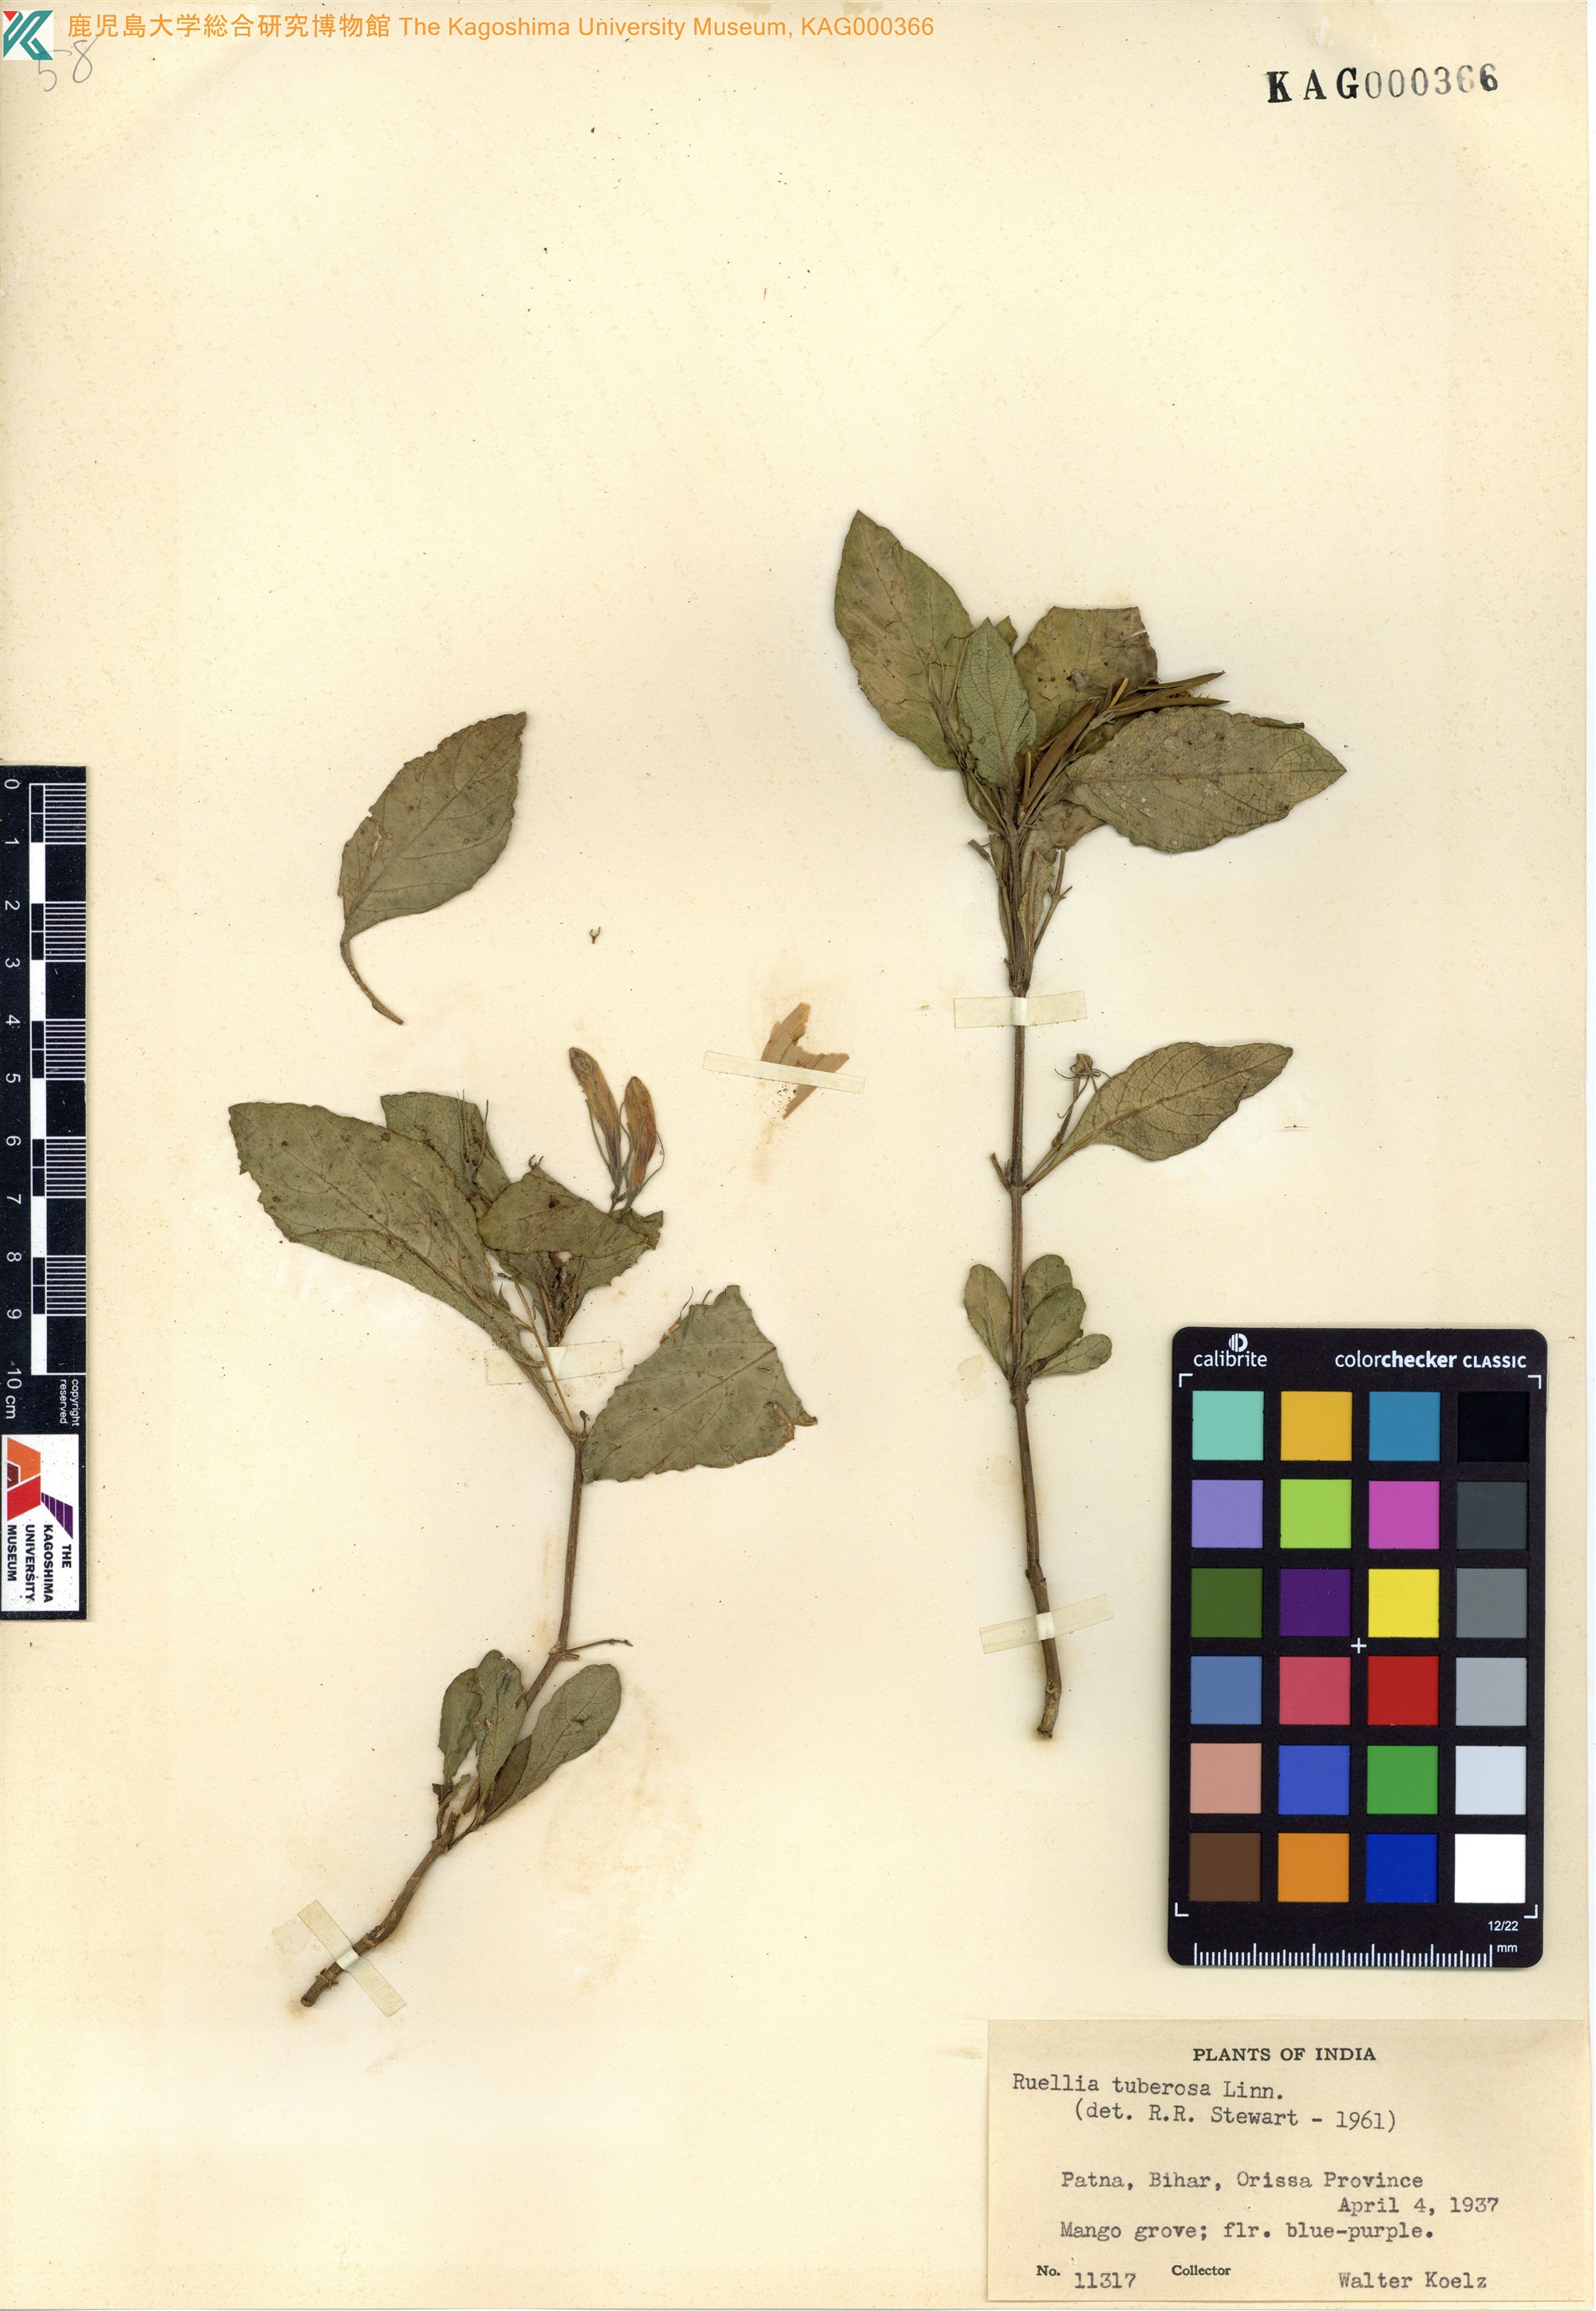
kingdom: Plantae
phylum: Tracheophyta
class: Magnoliopsida
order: Lamiales
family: Acanthaceae
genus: Ruellia
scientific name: Ruellia tuberosa
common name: Devil's bit
